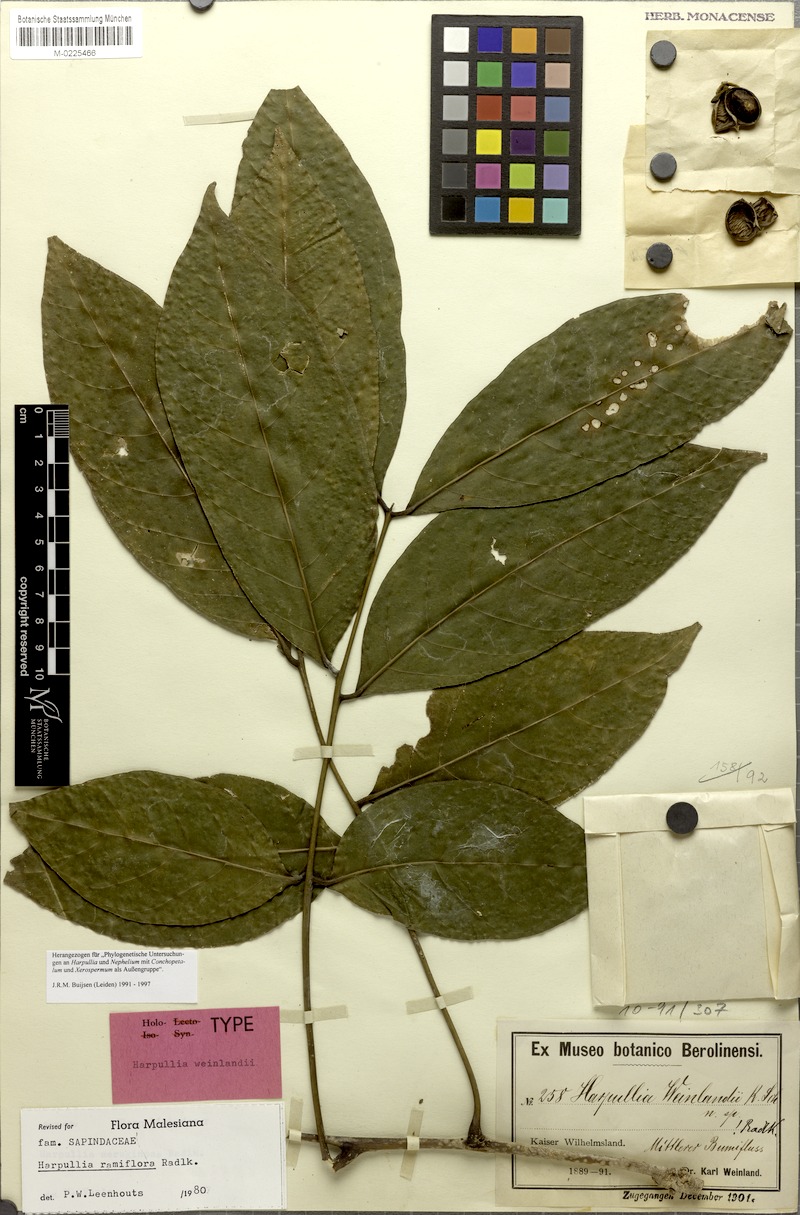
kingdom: Plantae
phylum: Tracheophyta
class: Magnoliopsida
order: Sapindales
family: Sapindaceae
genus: Harpullia
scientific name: Harpullia ramiflora
